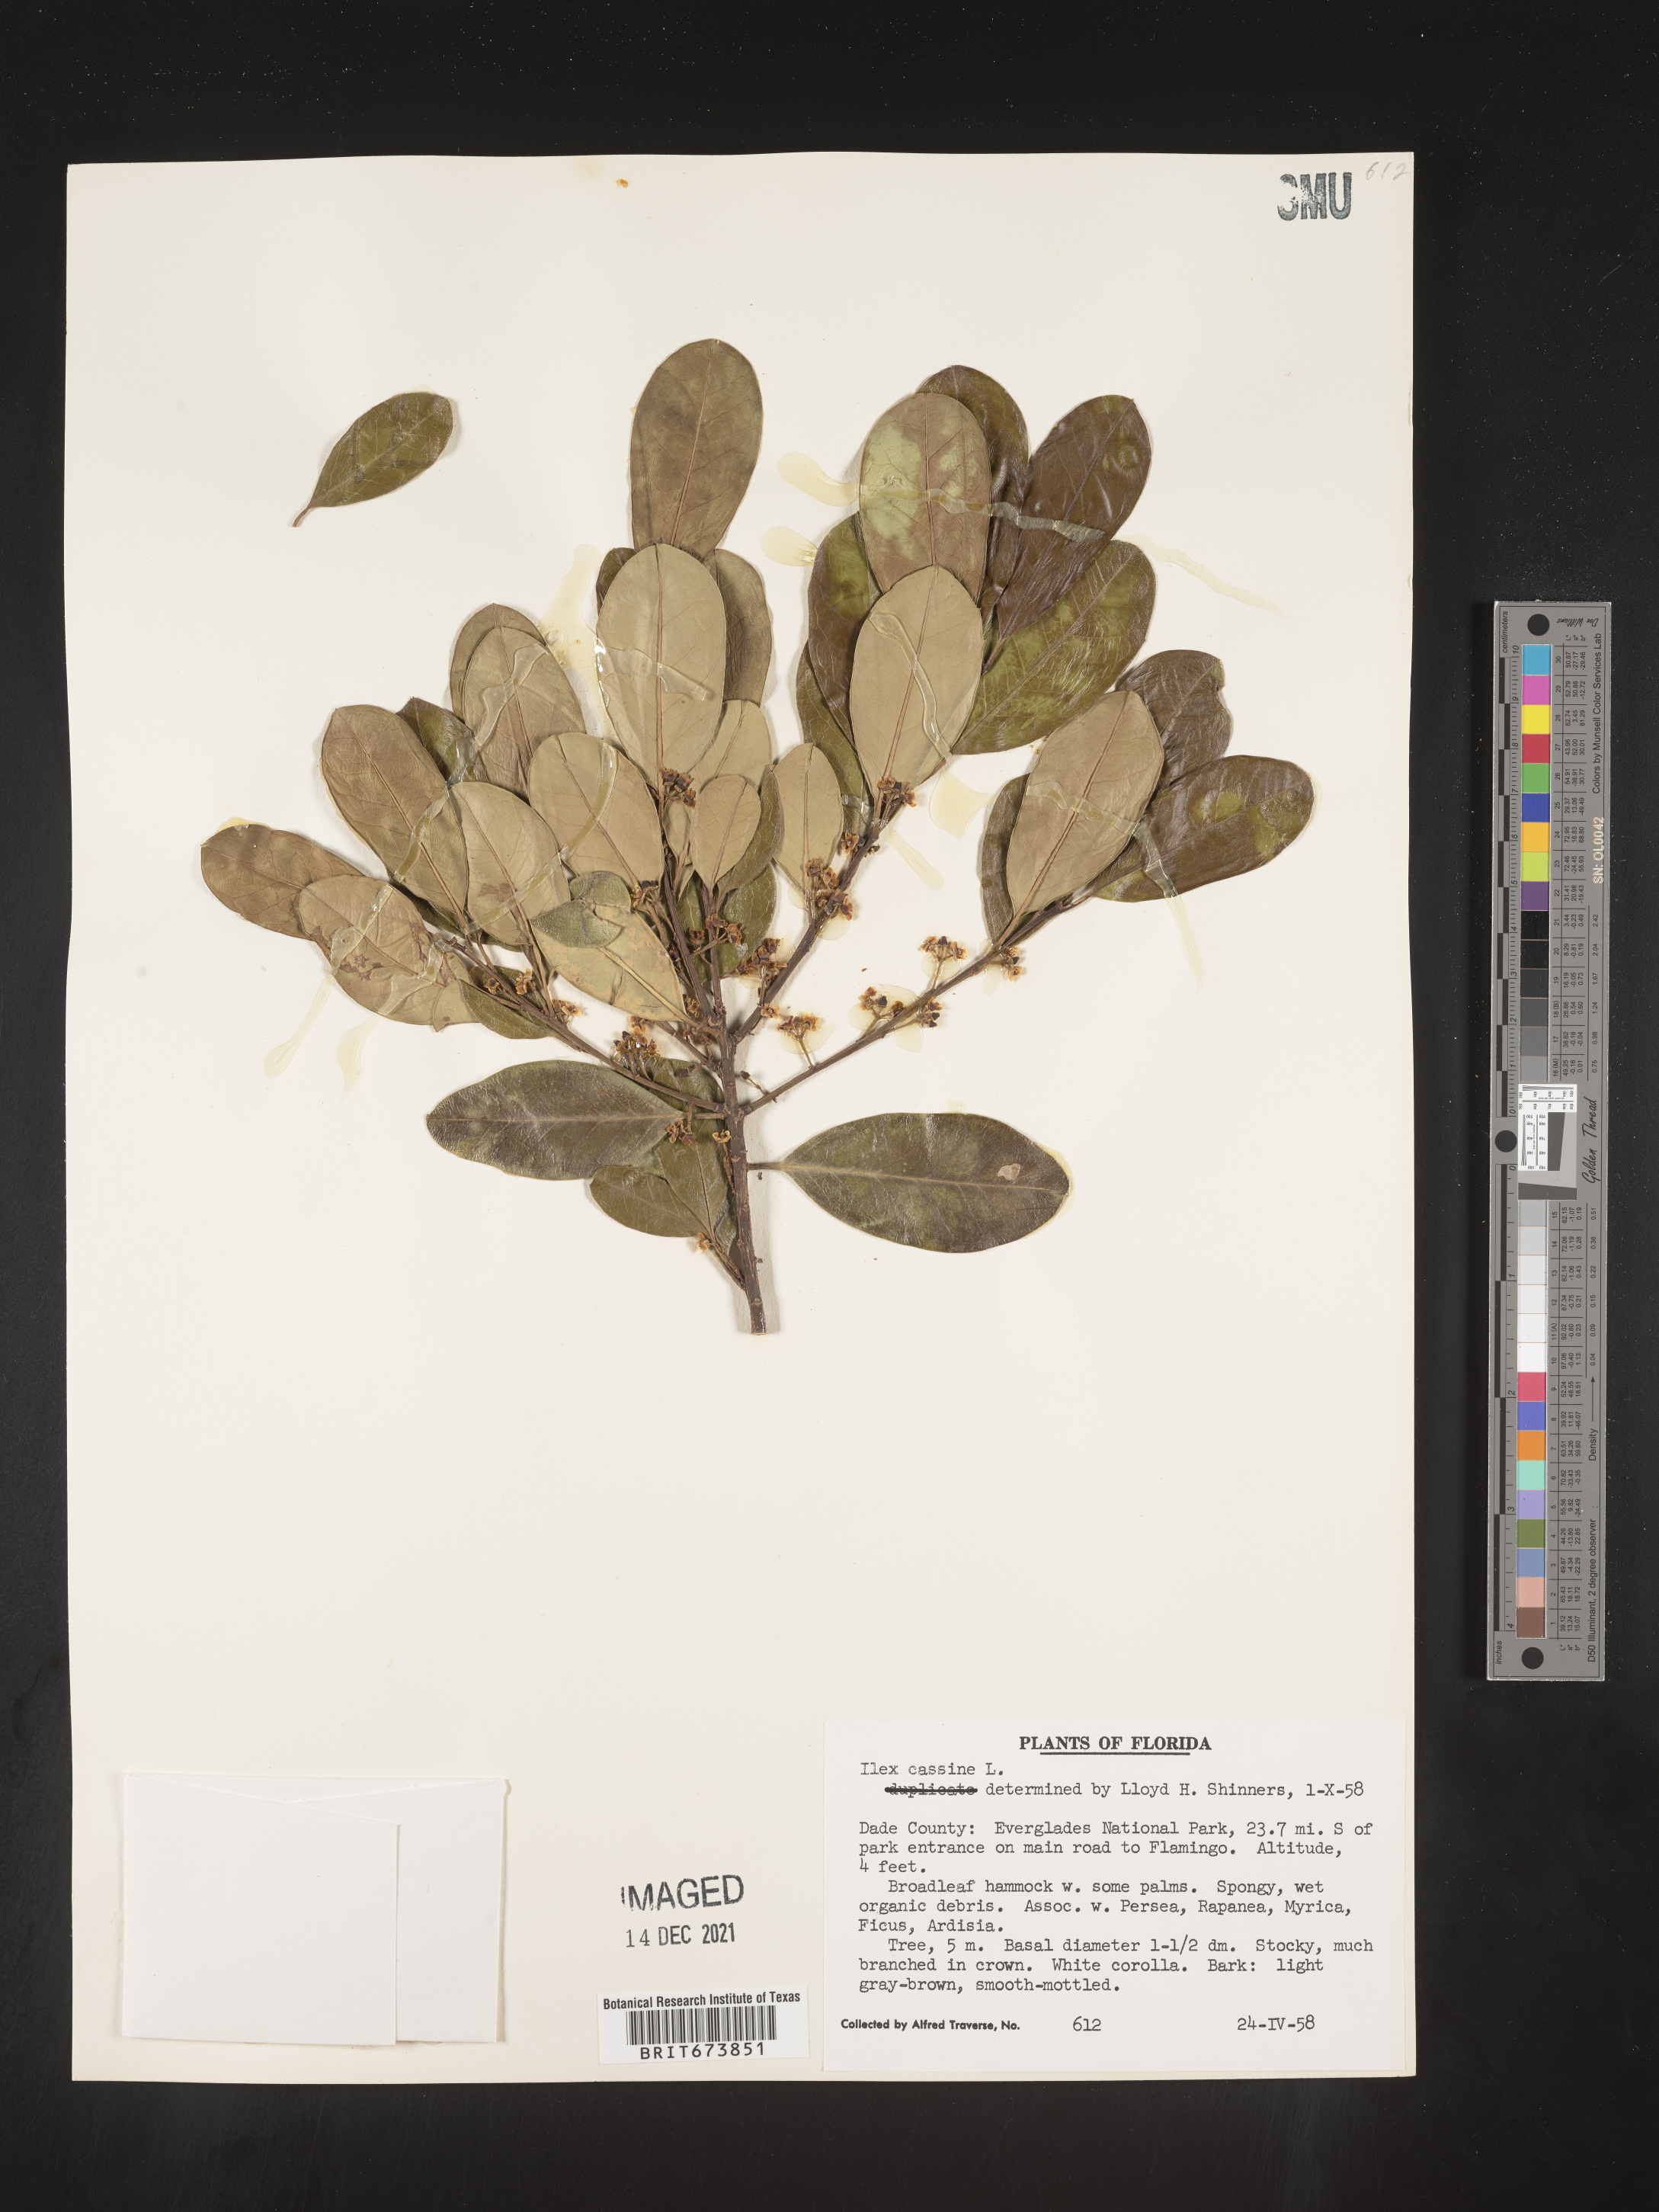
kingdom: Plantae
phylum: Tracheophyta
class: Magnoliopsida
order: Aquifoliales
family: Aquifoliaceae
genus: Ilex
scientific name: Ilex myrtifolia
